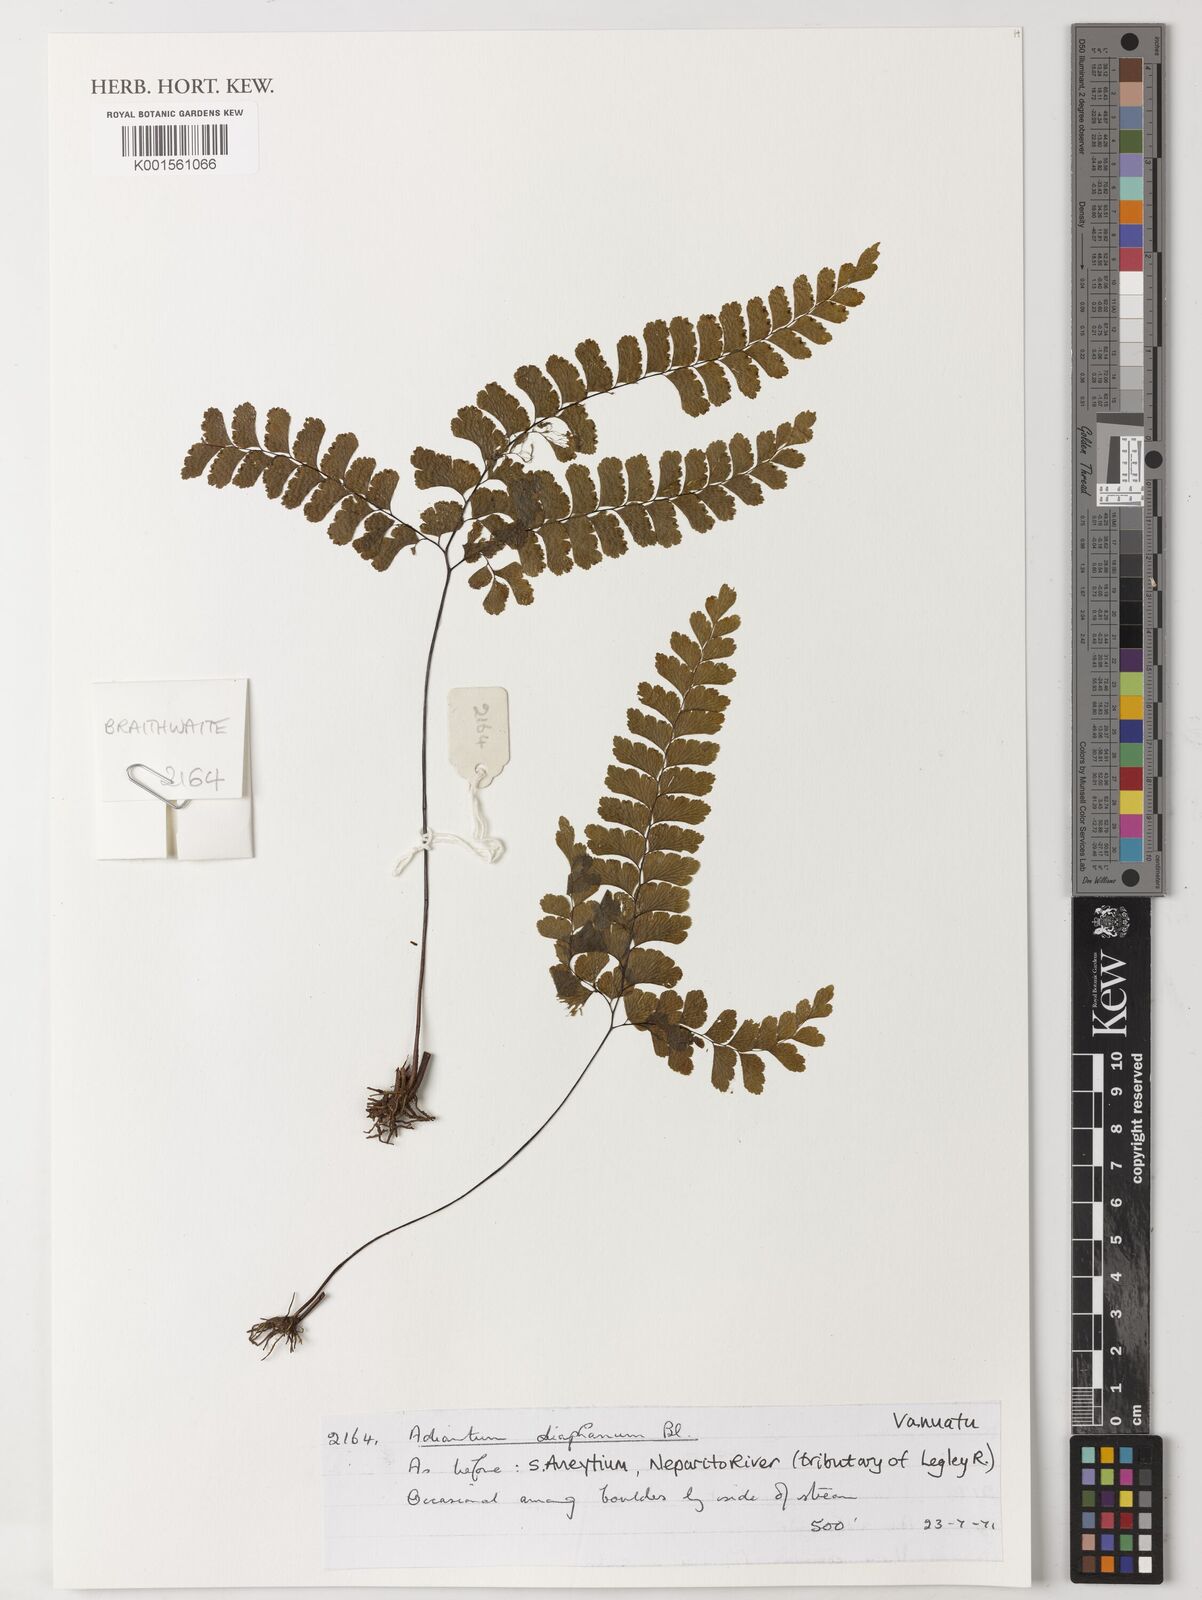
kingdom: Plantae
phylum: Tracheophyta
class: Polypodiopsida
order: Polypodiales
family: Pteridaceae
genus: Adiantum
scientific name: Adiantum diaphanum
